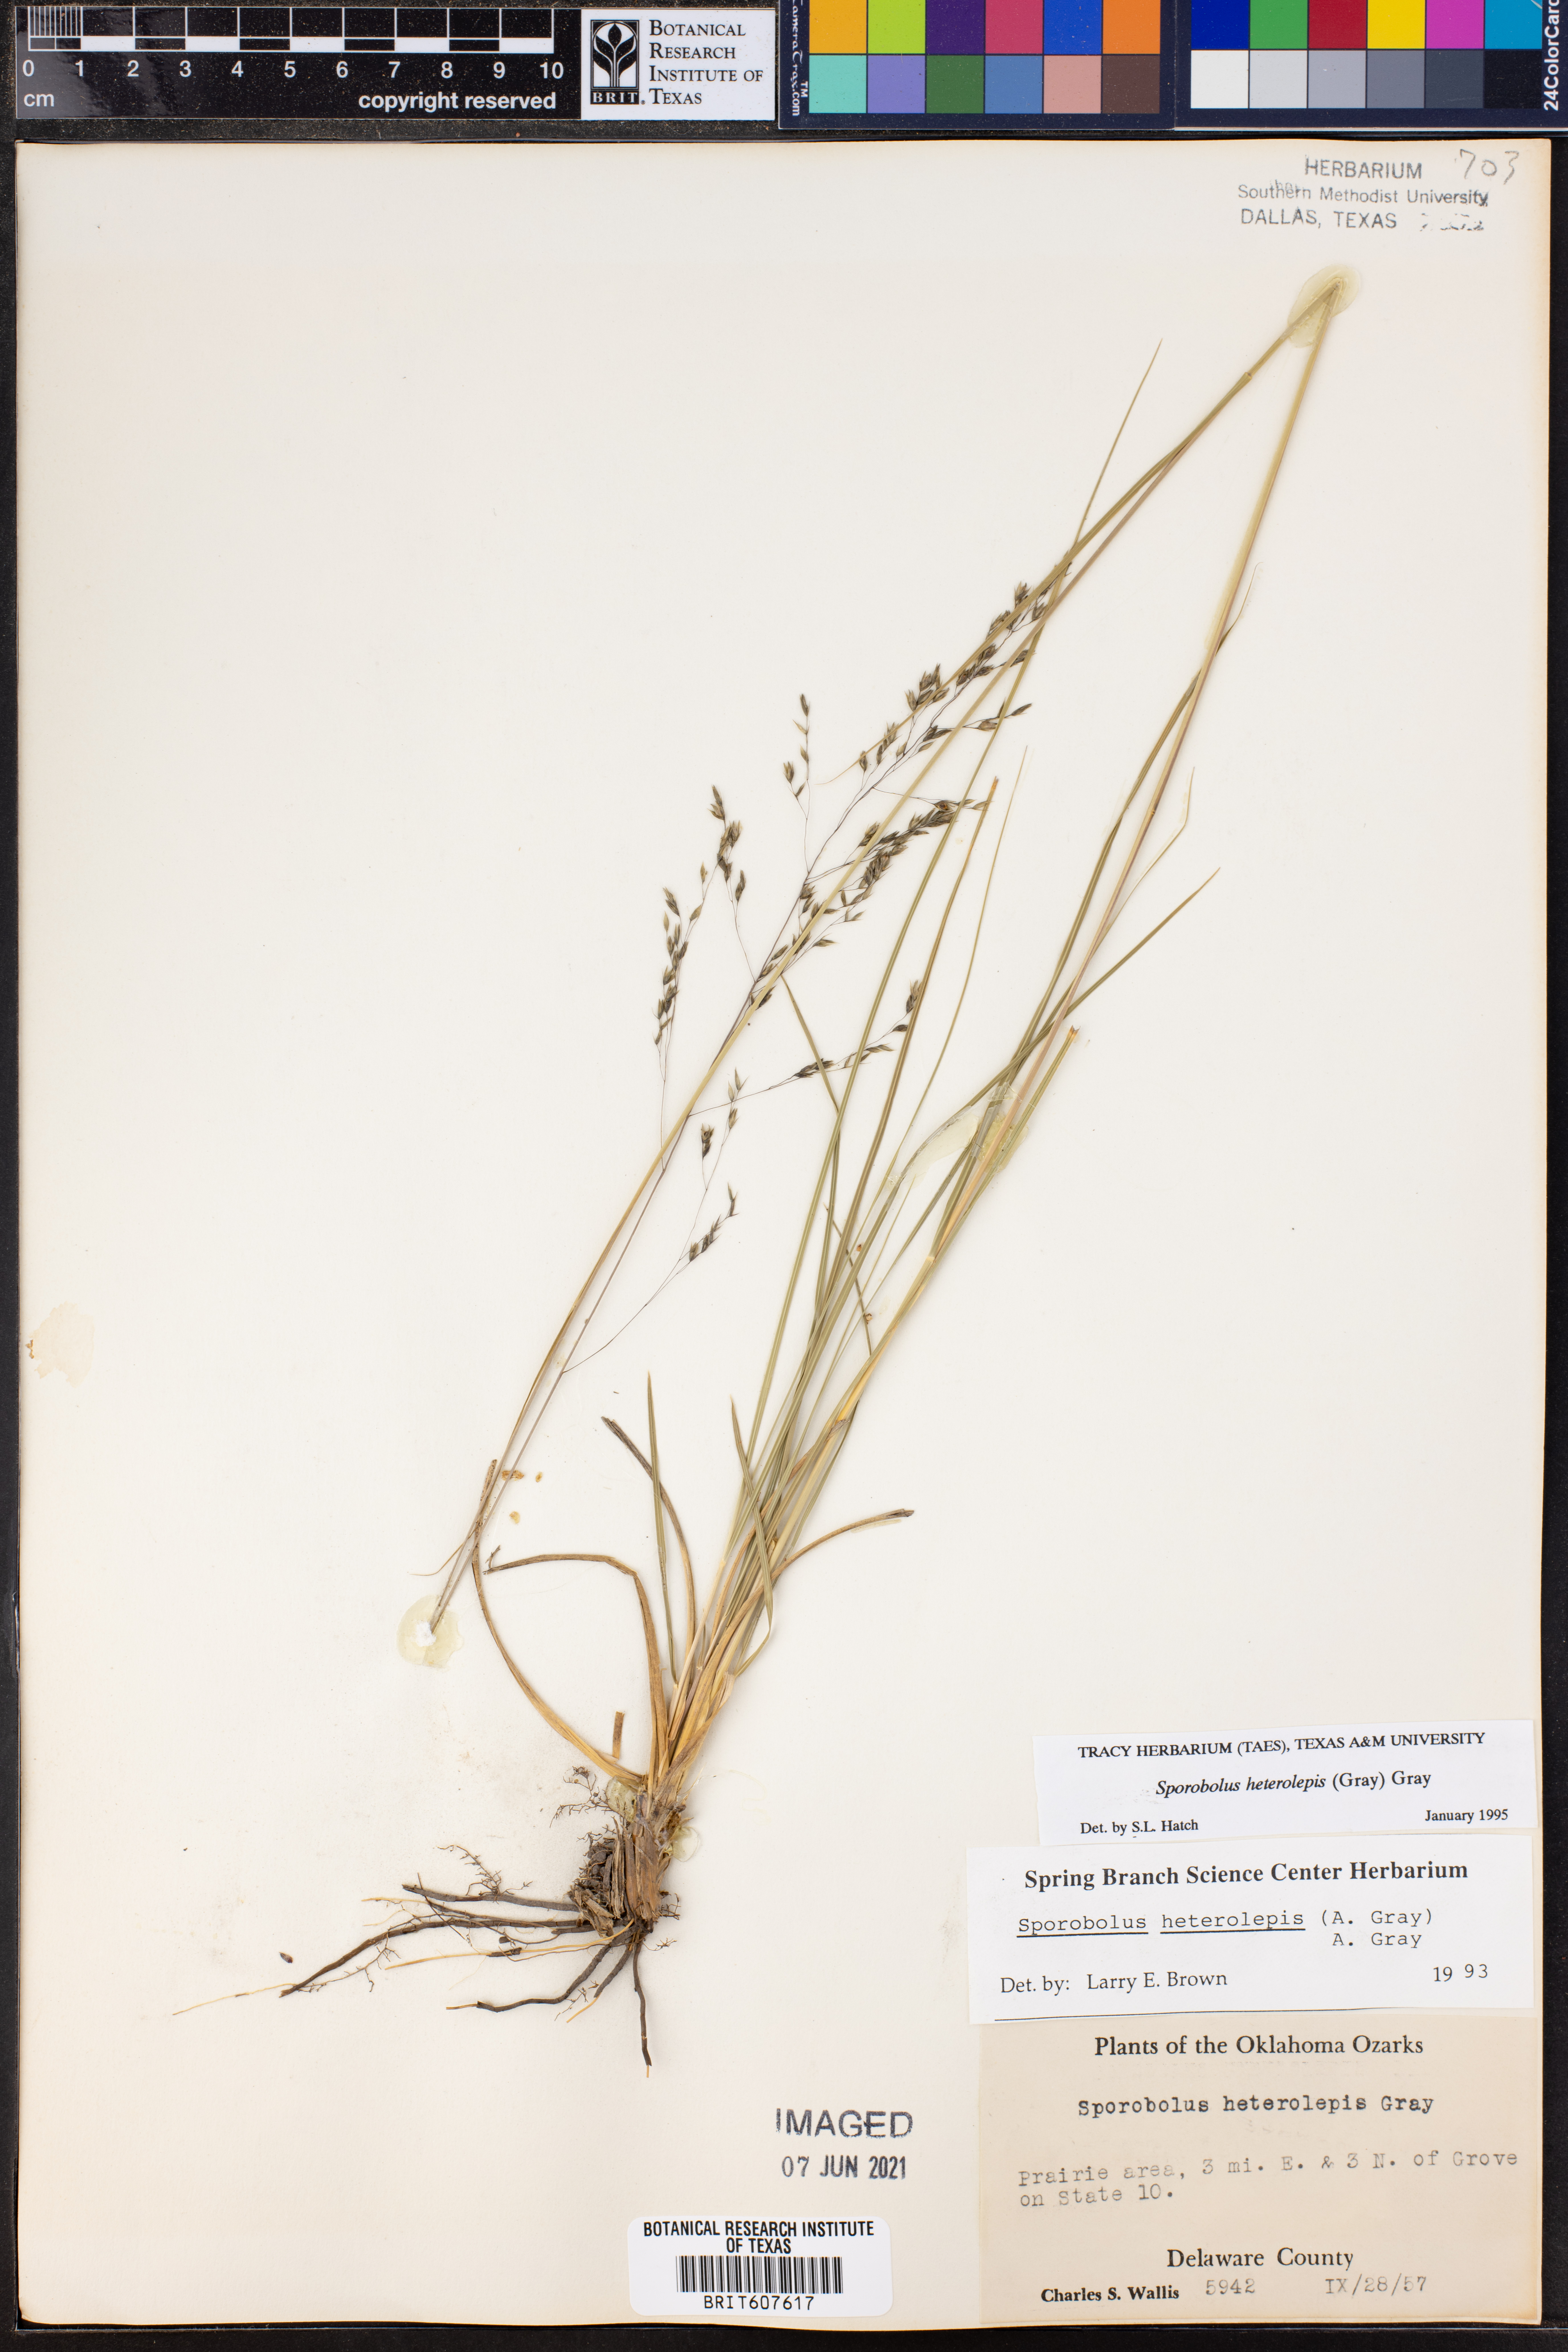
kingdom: Plantae
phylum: Tracheophyta
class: Liliopsida
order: Poales
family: Poaceae
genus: Sporobolus
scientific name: Sporobolus heterolepis
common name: Prairie dropseed
